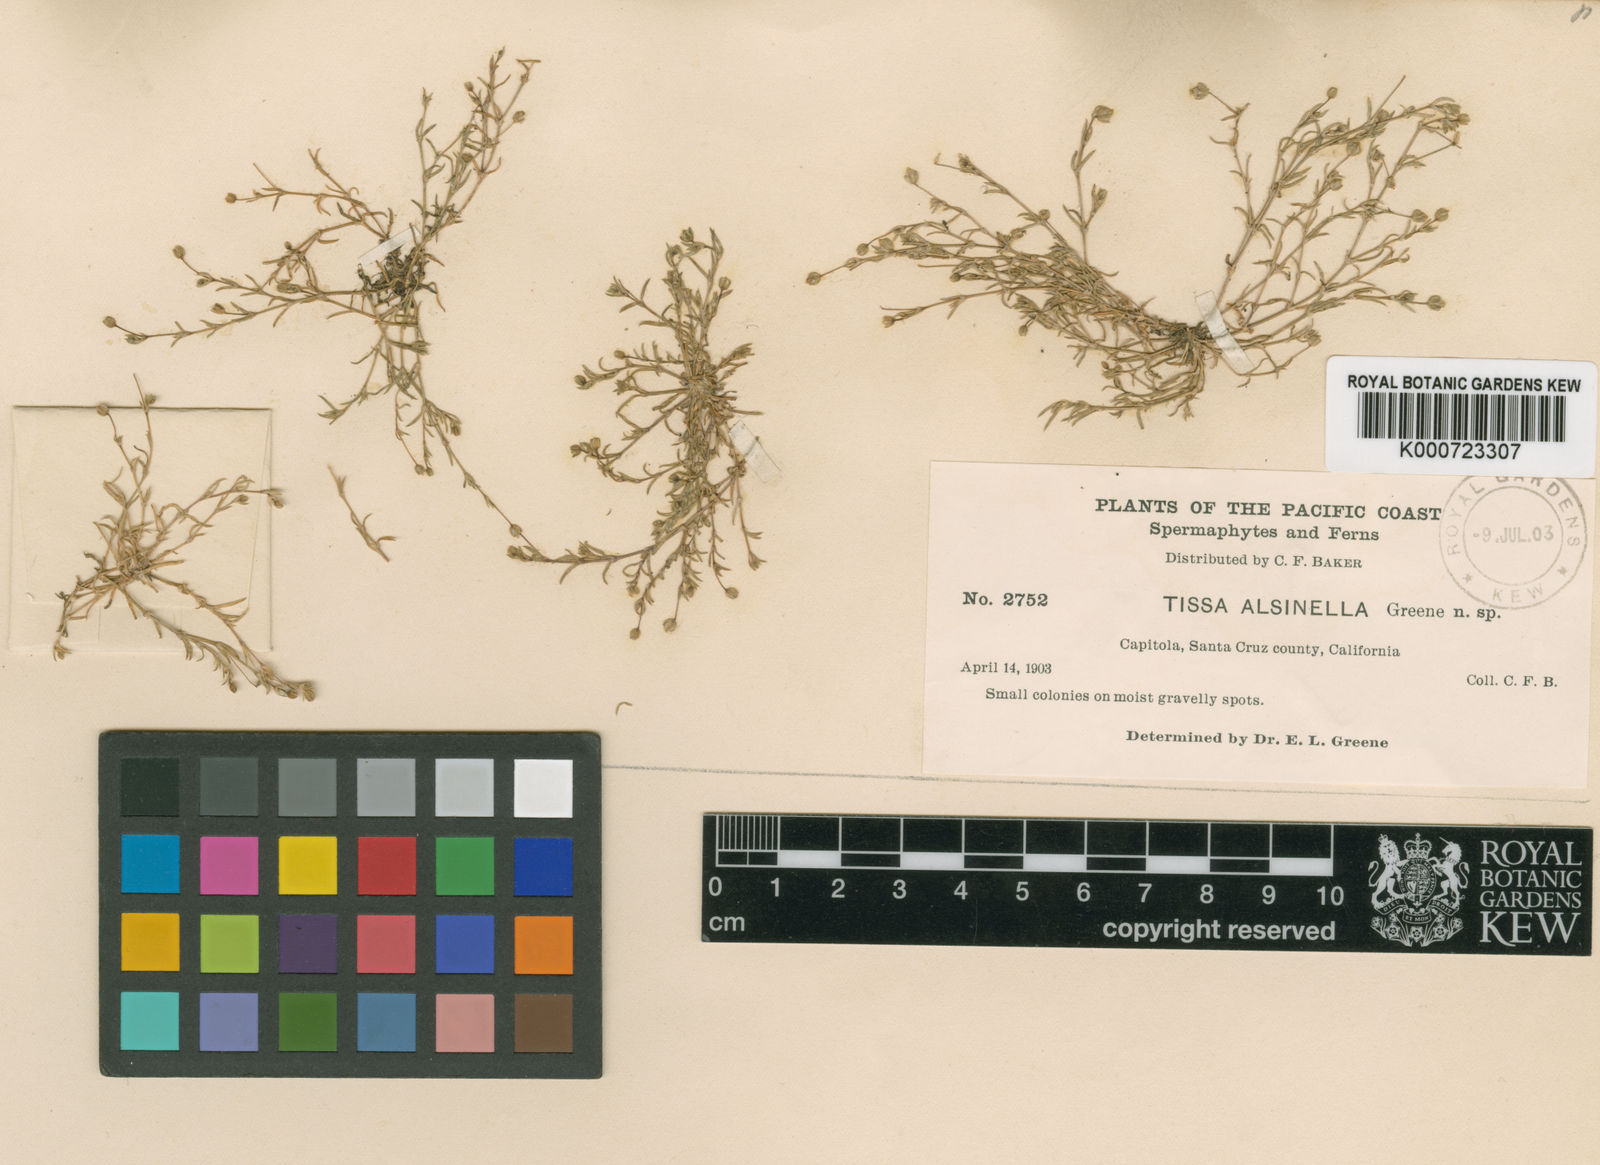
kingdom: Plantae
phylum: Tracheophyta
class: Magnoliopsida
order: Caryophyllales
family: Caryophyllaceae
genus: Spergularia
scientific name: Spergularia
